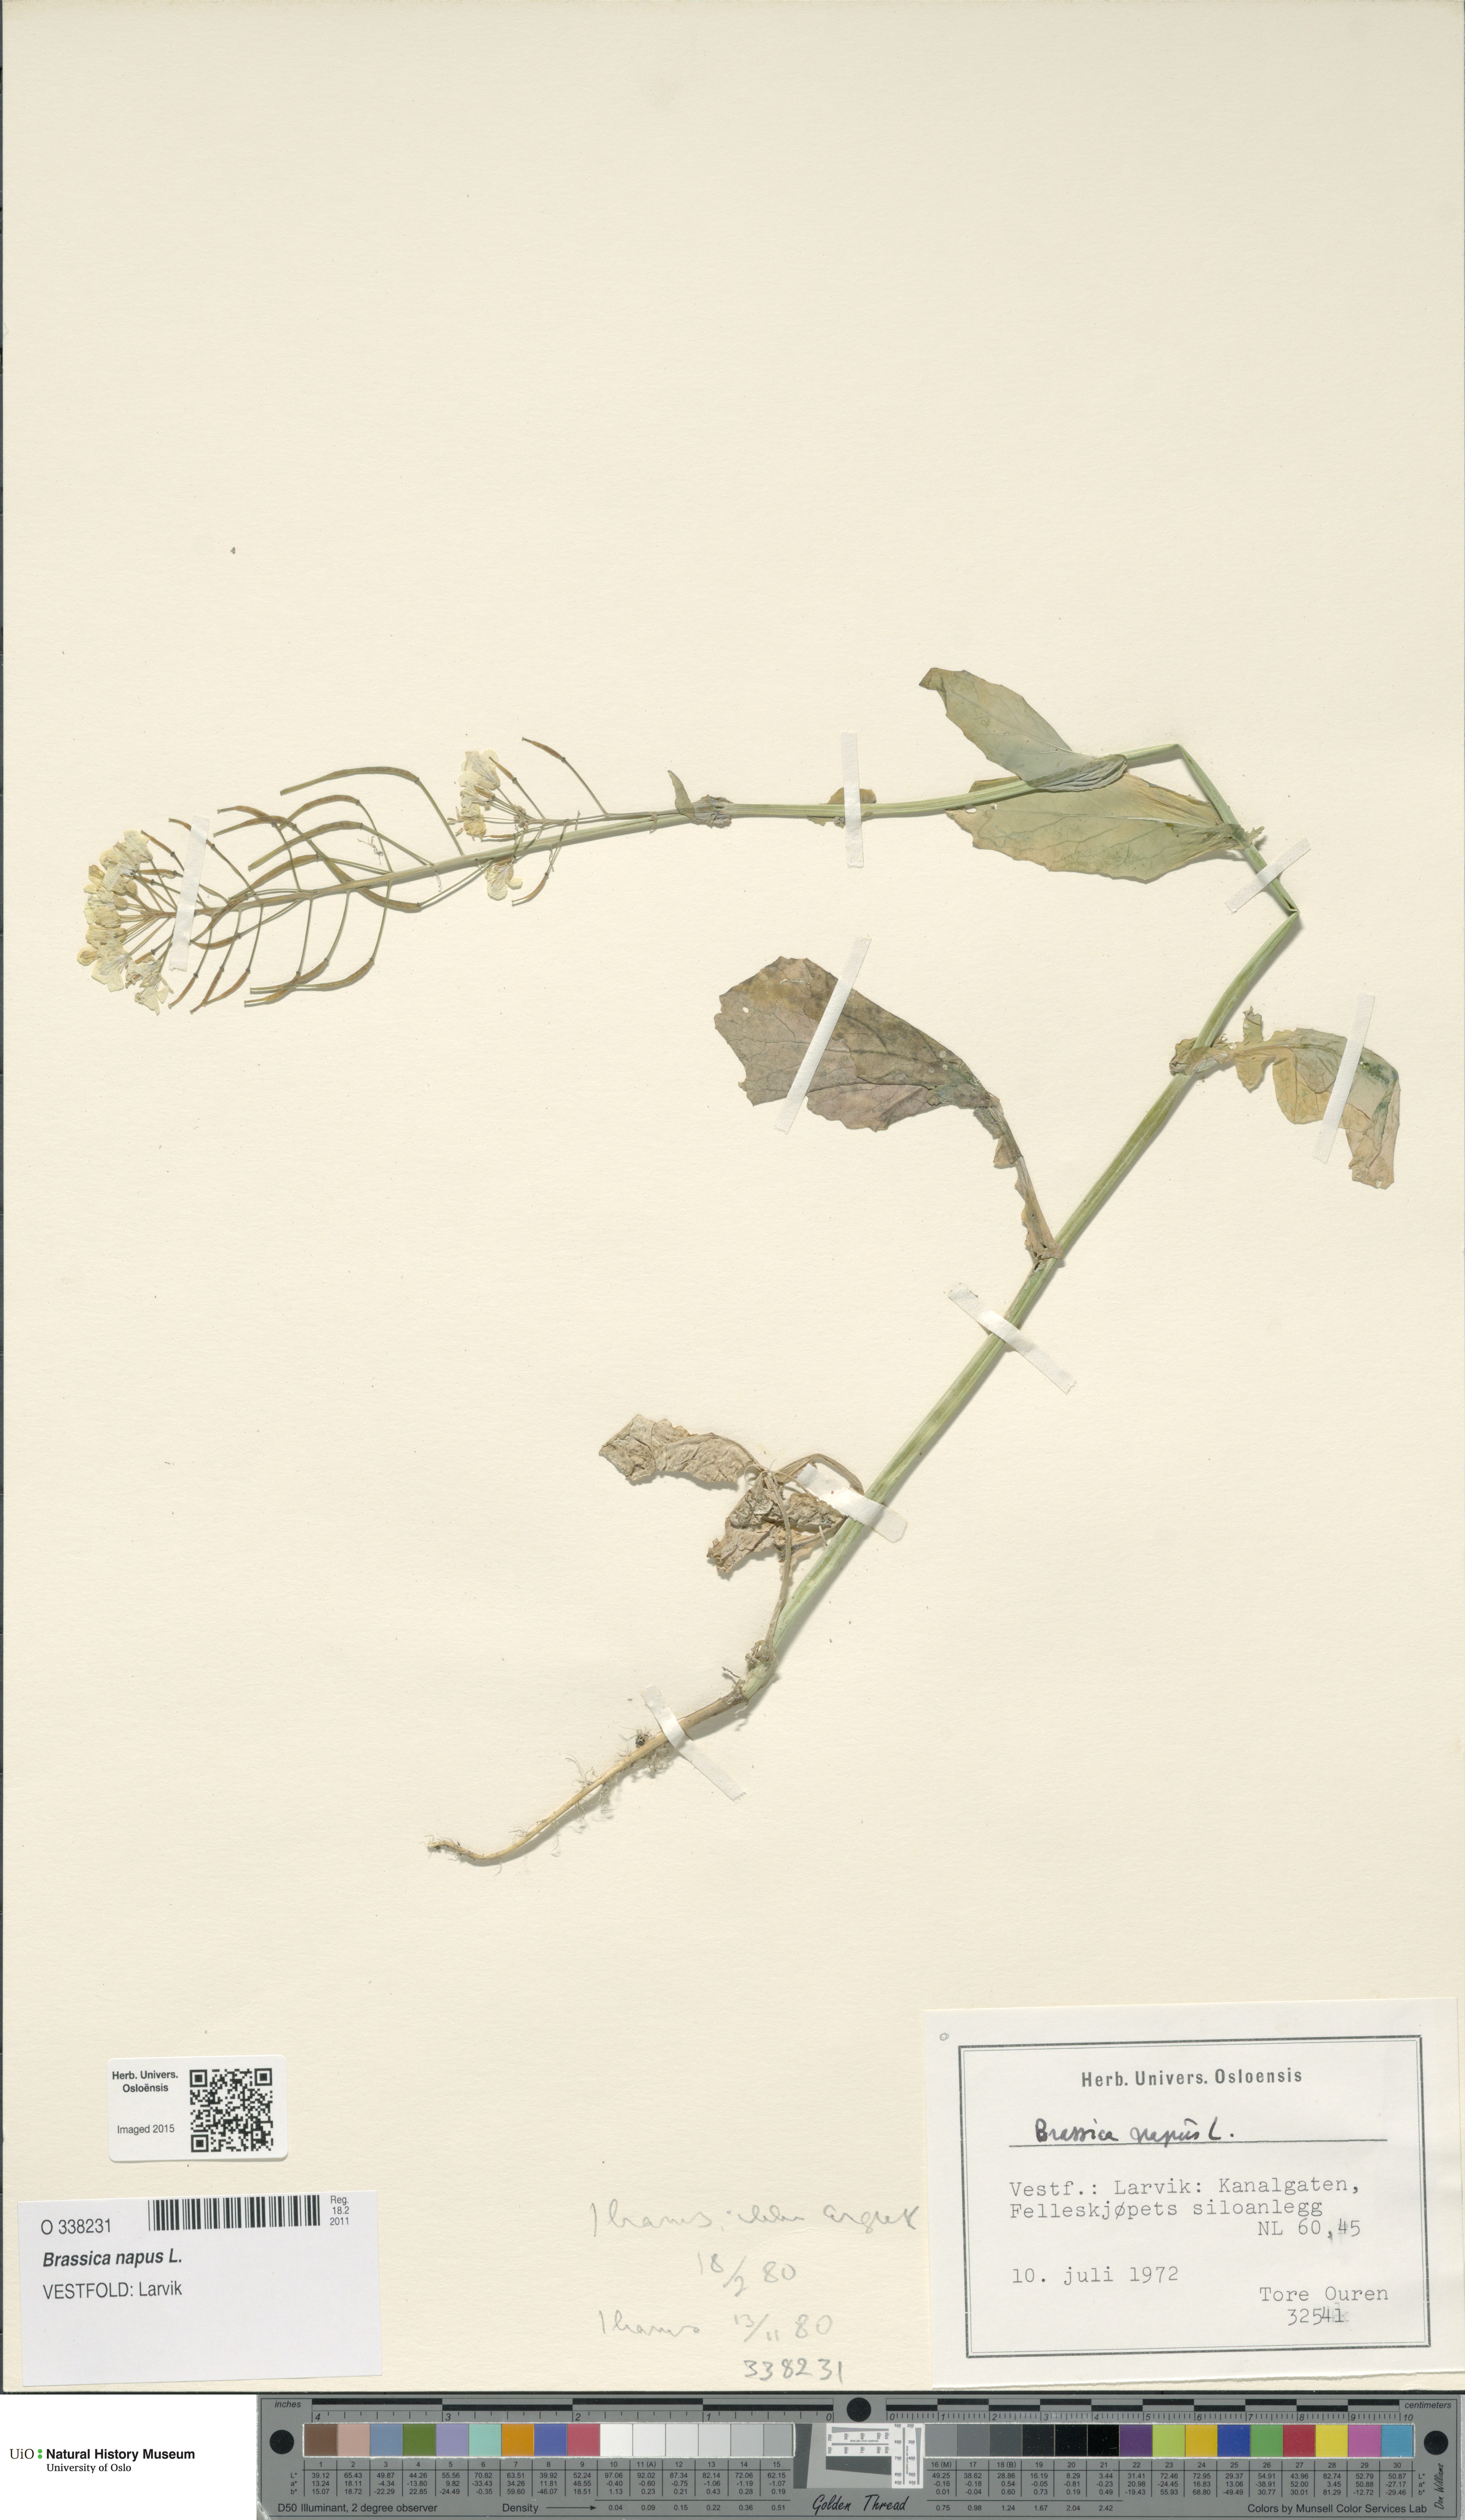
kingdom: Plantae
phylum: Tracheophyta
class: Magnoliopsida
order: Brassicales
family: Brassicaceae
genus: Brassica
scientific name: Brassica napus
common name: Rape
